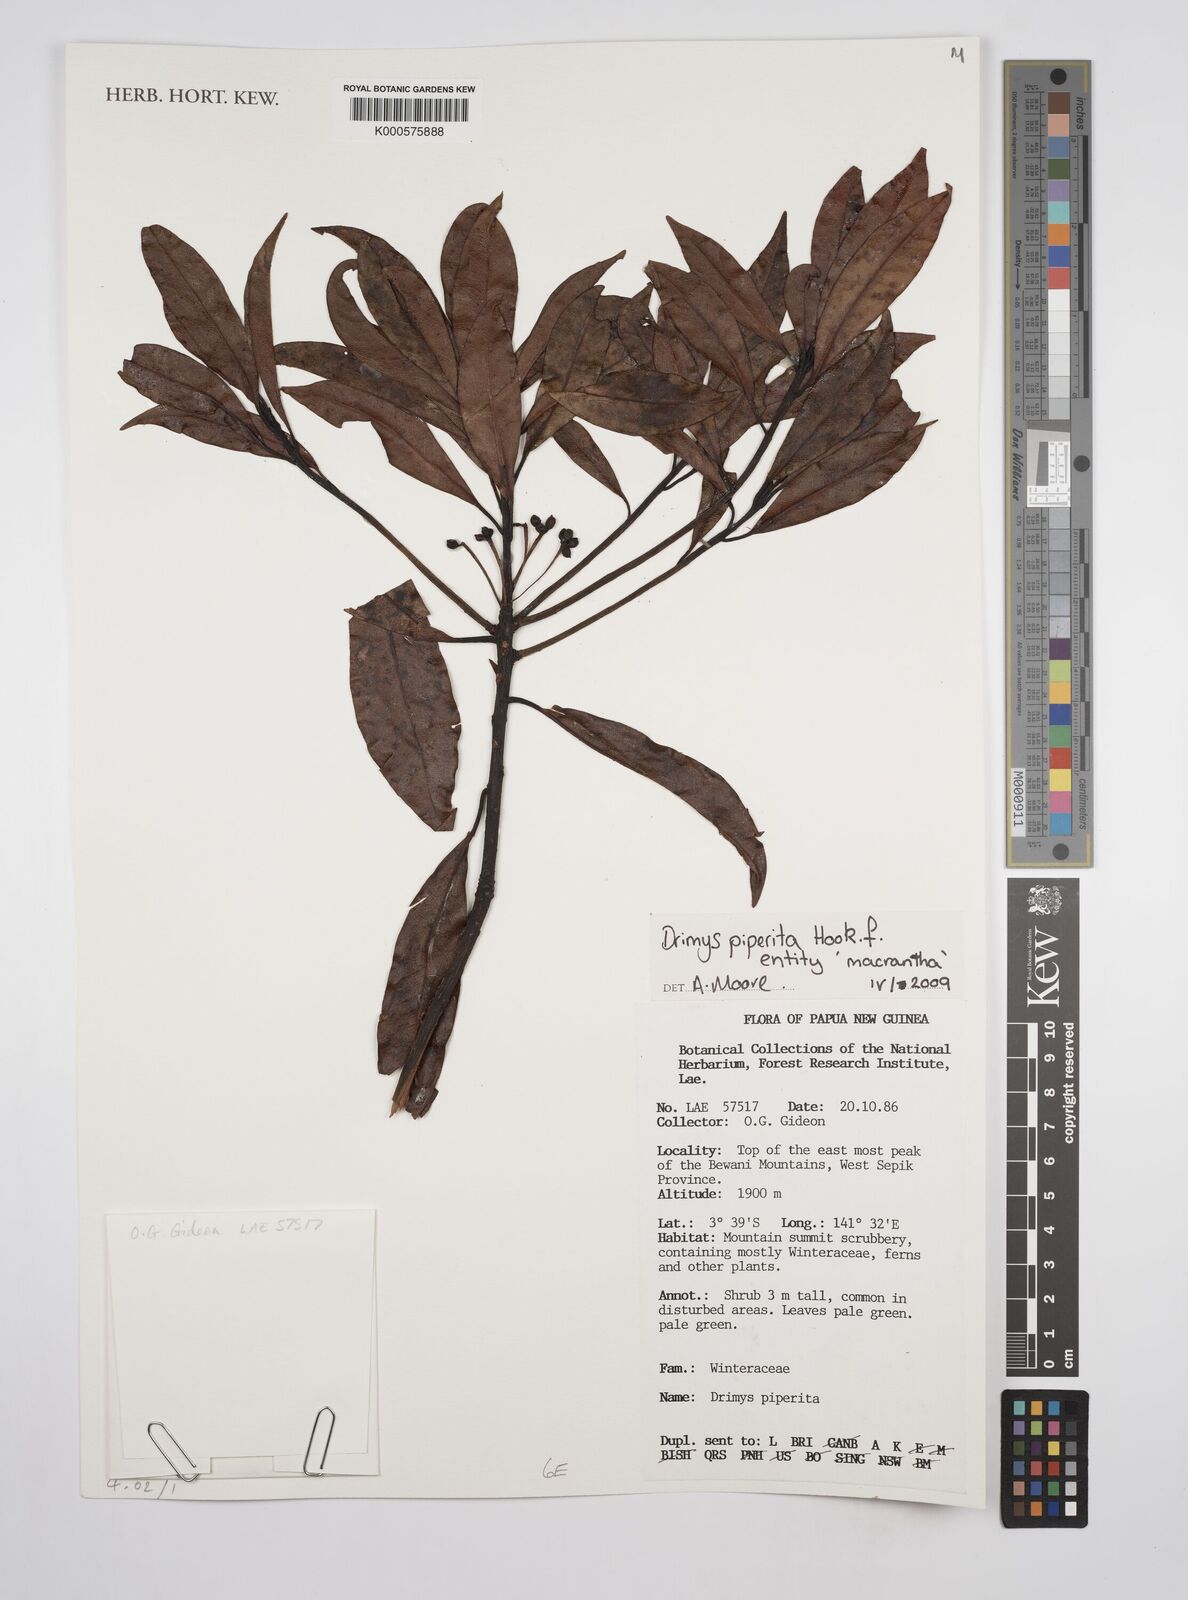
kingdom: Plantae
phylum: Tracheophyta
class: Magnoliopsida
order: Canellales
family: Winteraceae
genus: Drimys
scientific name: Drimys piperita
